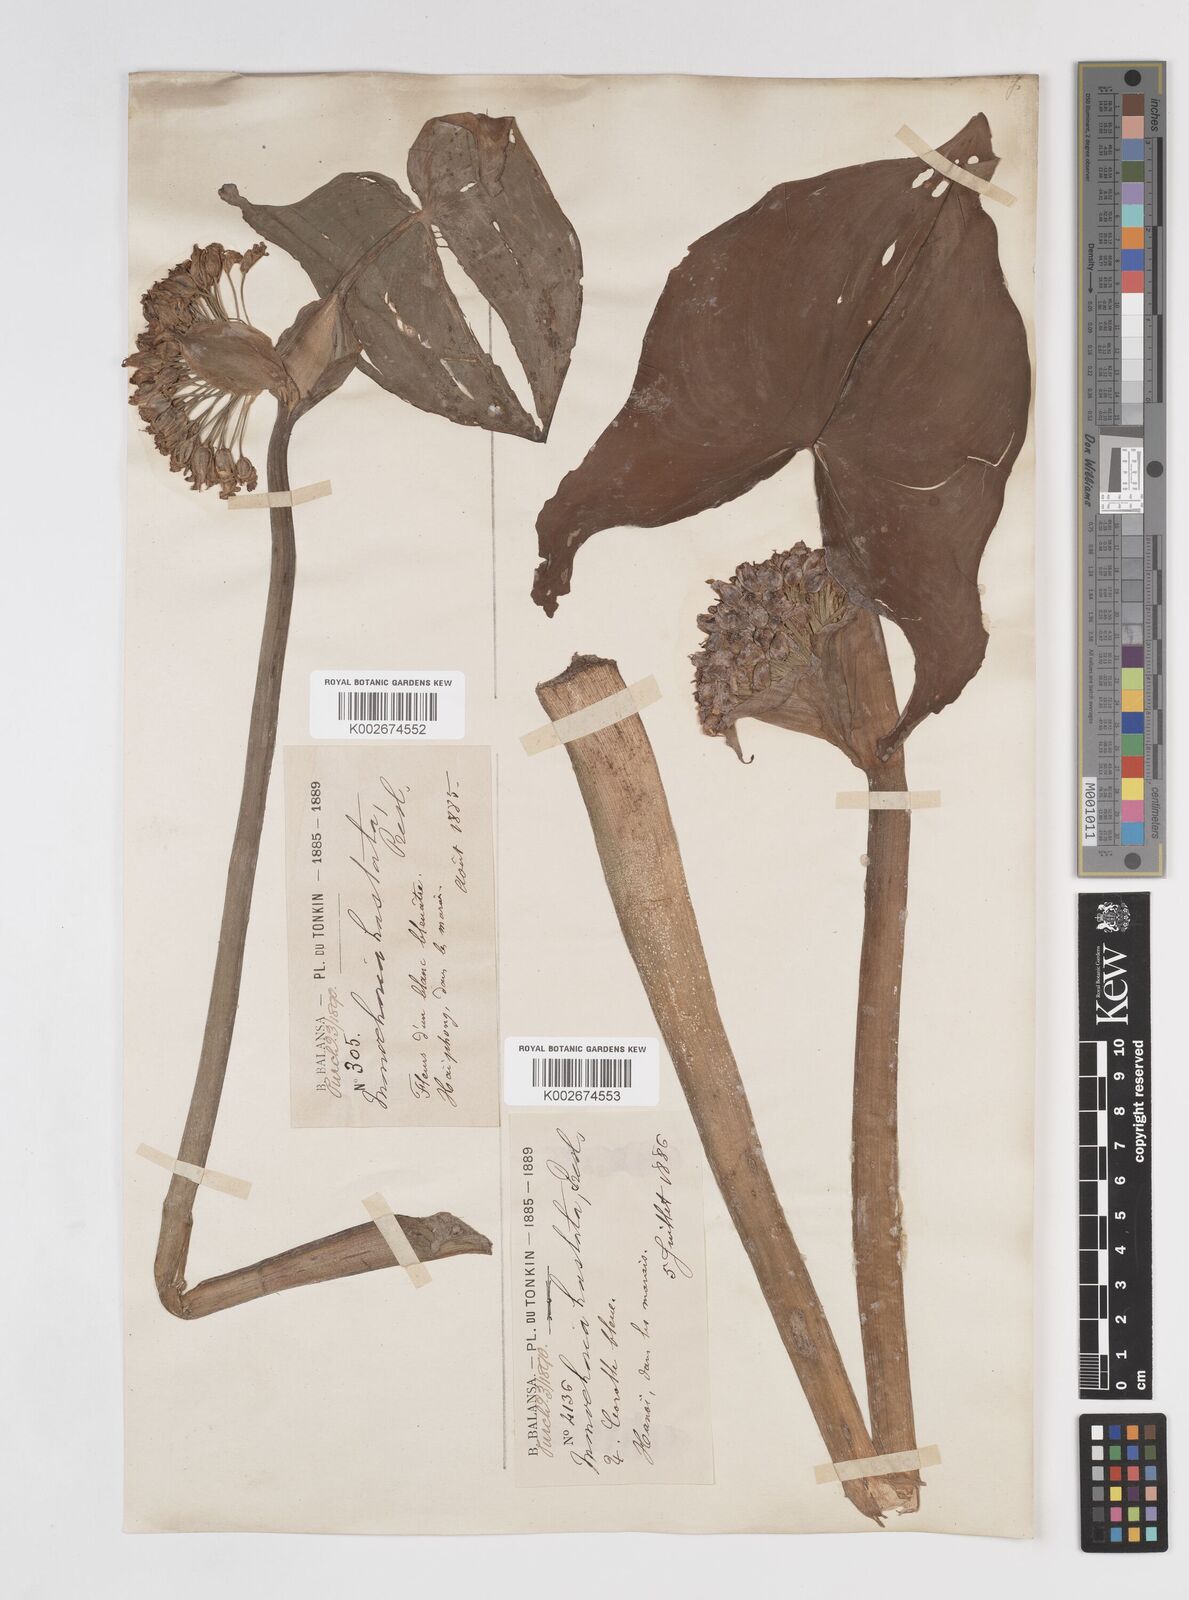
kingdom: Plantae
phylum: Tracheophyta
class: Liliopsida
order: Commelinales
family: Pontederiaceae
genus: Pontederia
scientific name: Pontederia hastata
